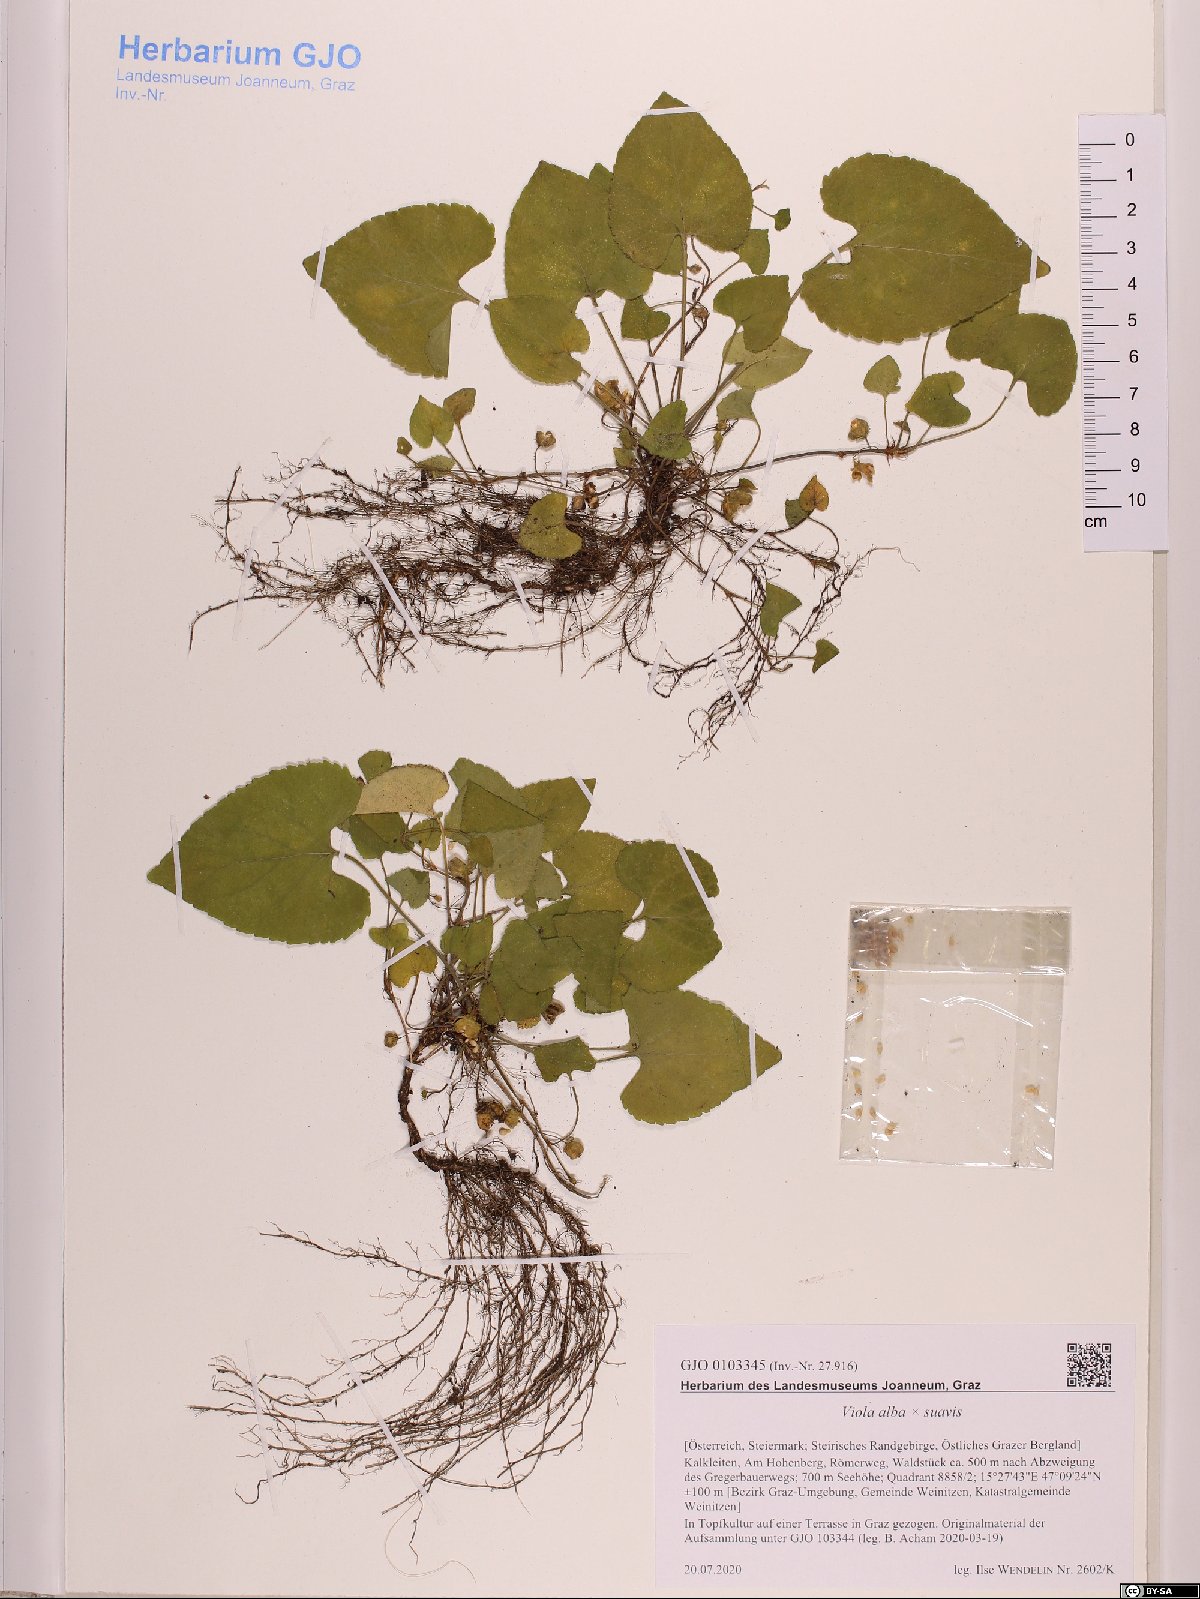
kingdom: Plantae
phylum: Tracheophyta
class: Magnoliopsida
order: Malpighiales
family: Violaceae
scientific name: Violaceae
